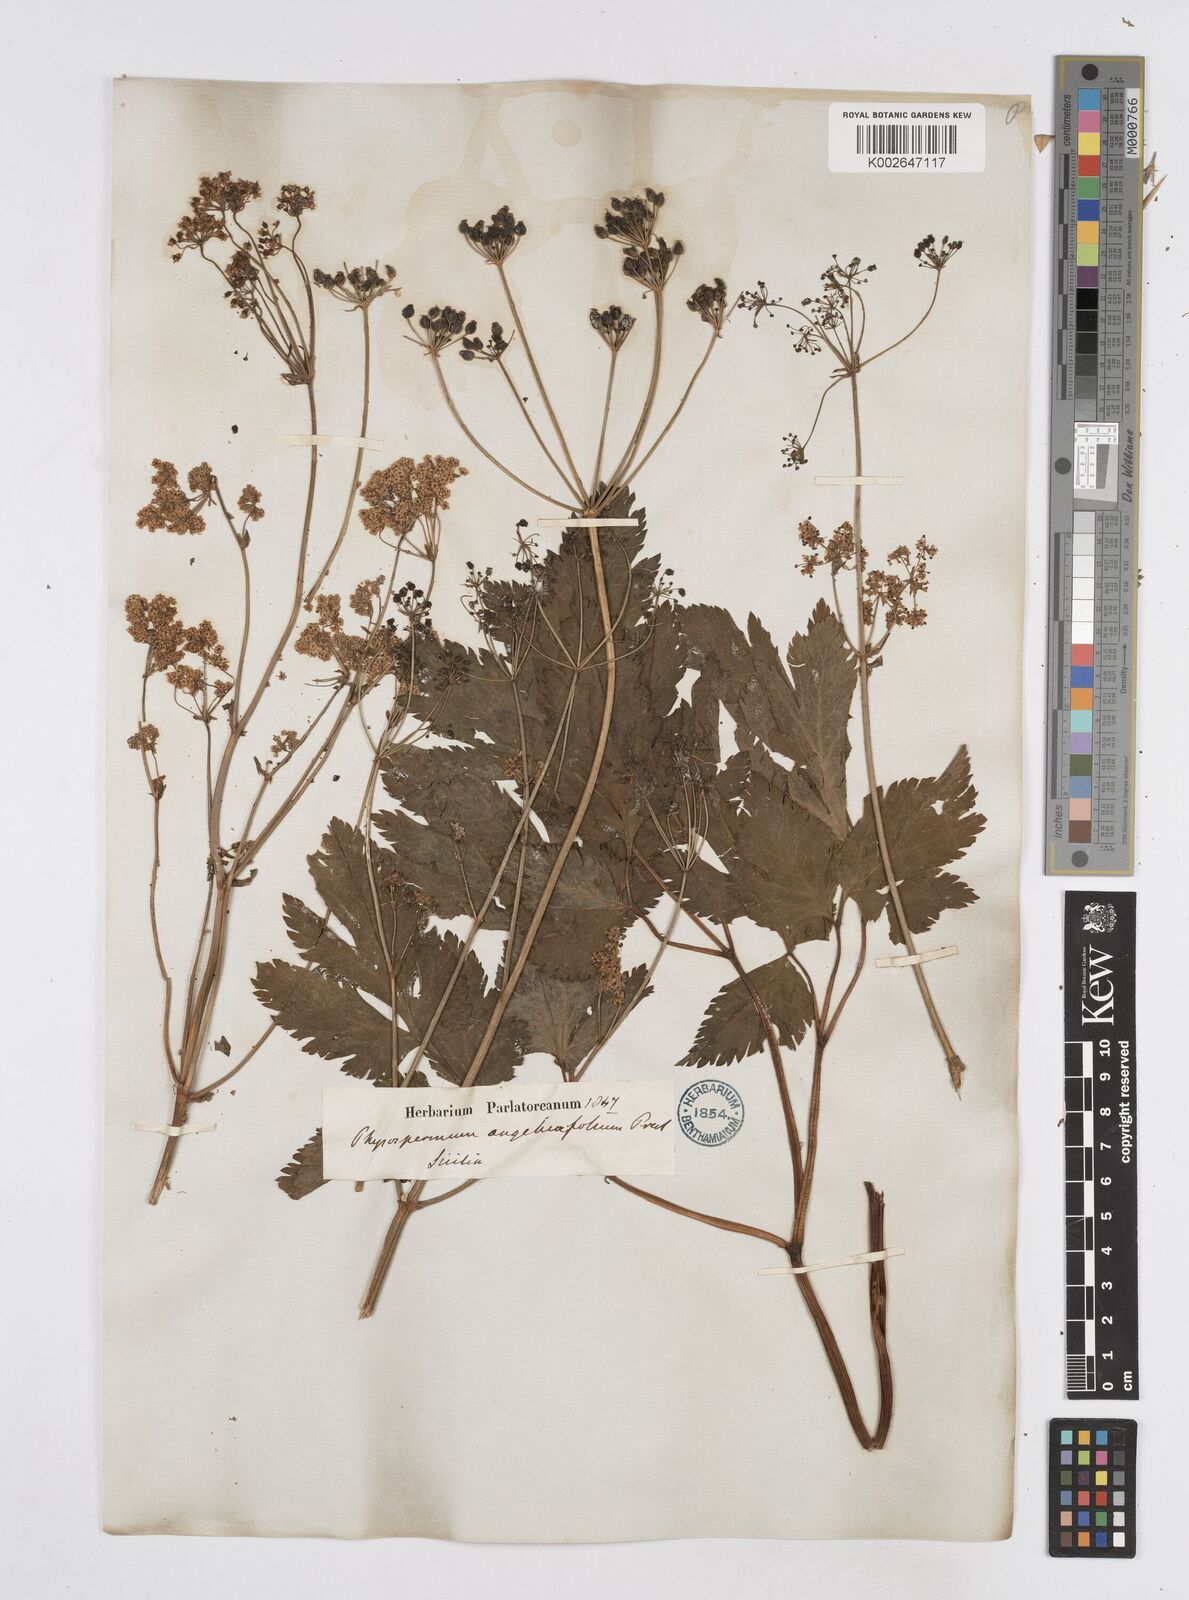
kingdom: Plantae
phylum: Tracheophyta
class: Magnoliopsida
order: Apiales
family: Apiaceae
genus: Physospermum
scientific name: Physospermum verticillatum
